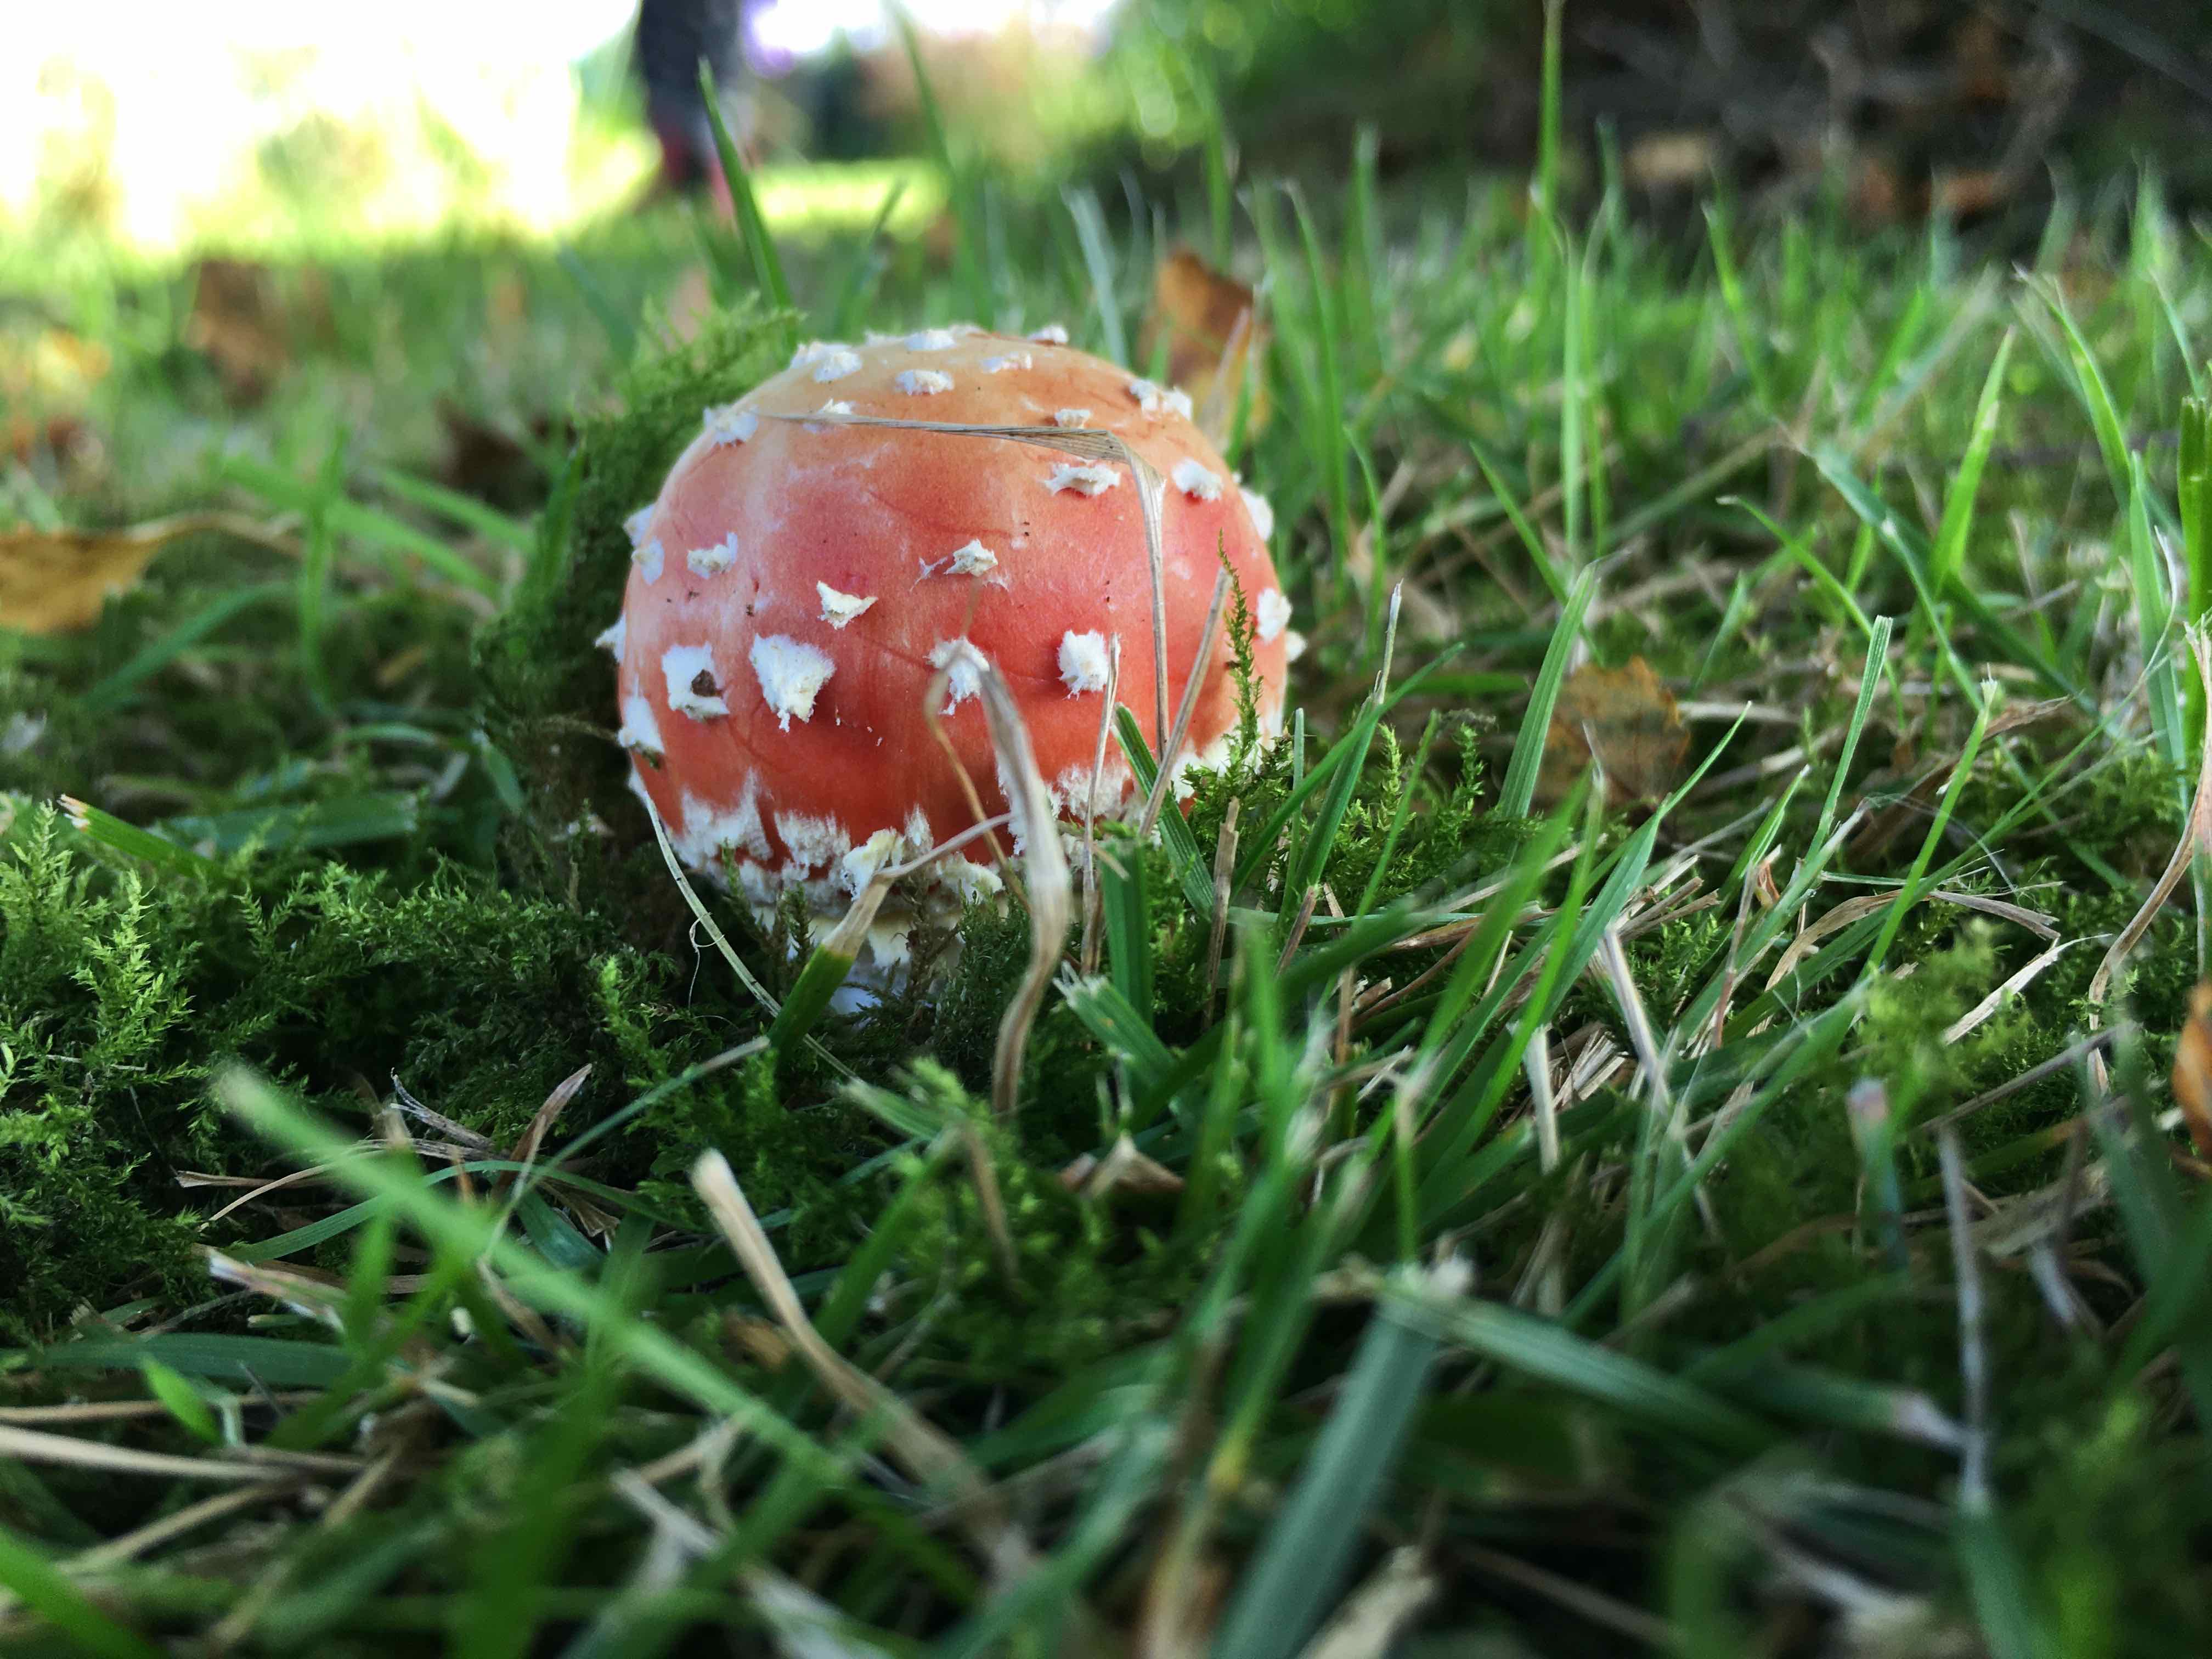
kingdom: Fungi
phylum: Basidiomycota
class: Agaricomycetes
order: Agaricales
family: Amanitaceae
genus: Amanita
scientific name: Amanita muscaria
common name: rød fluesvamp
